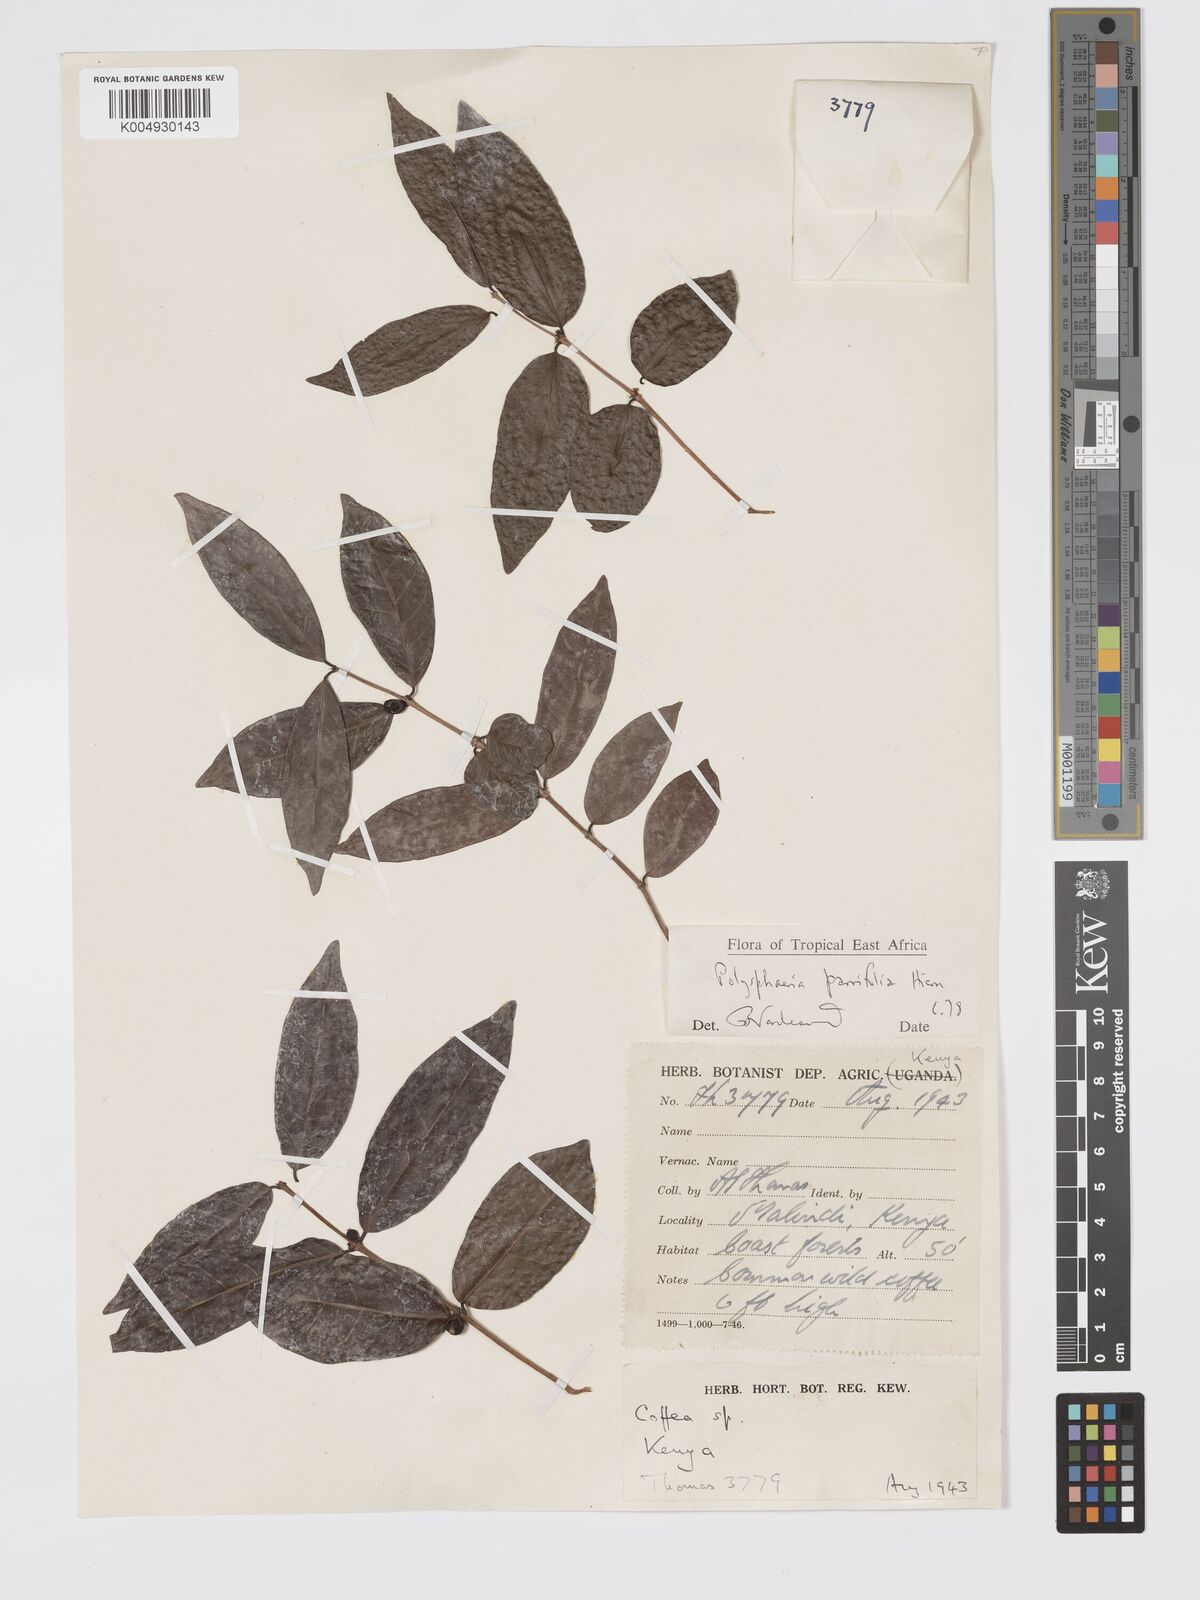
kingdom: Plantae
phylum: Tracheophyta
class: Magnoliopsida
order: Gentianales
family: Rubiaceae
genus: Polysphaeria
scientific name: Polysphaeria parvifolia
